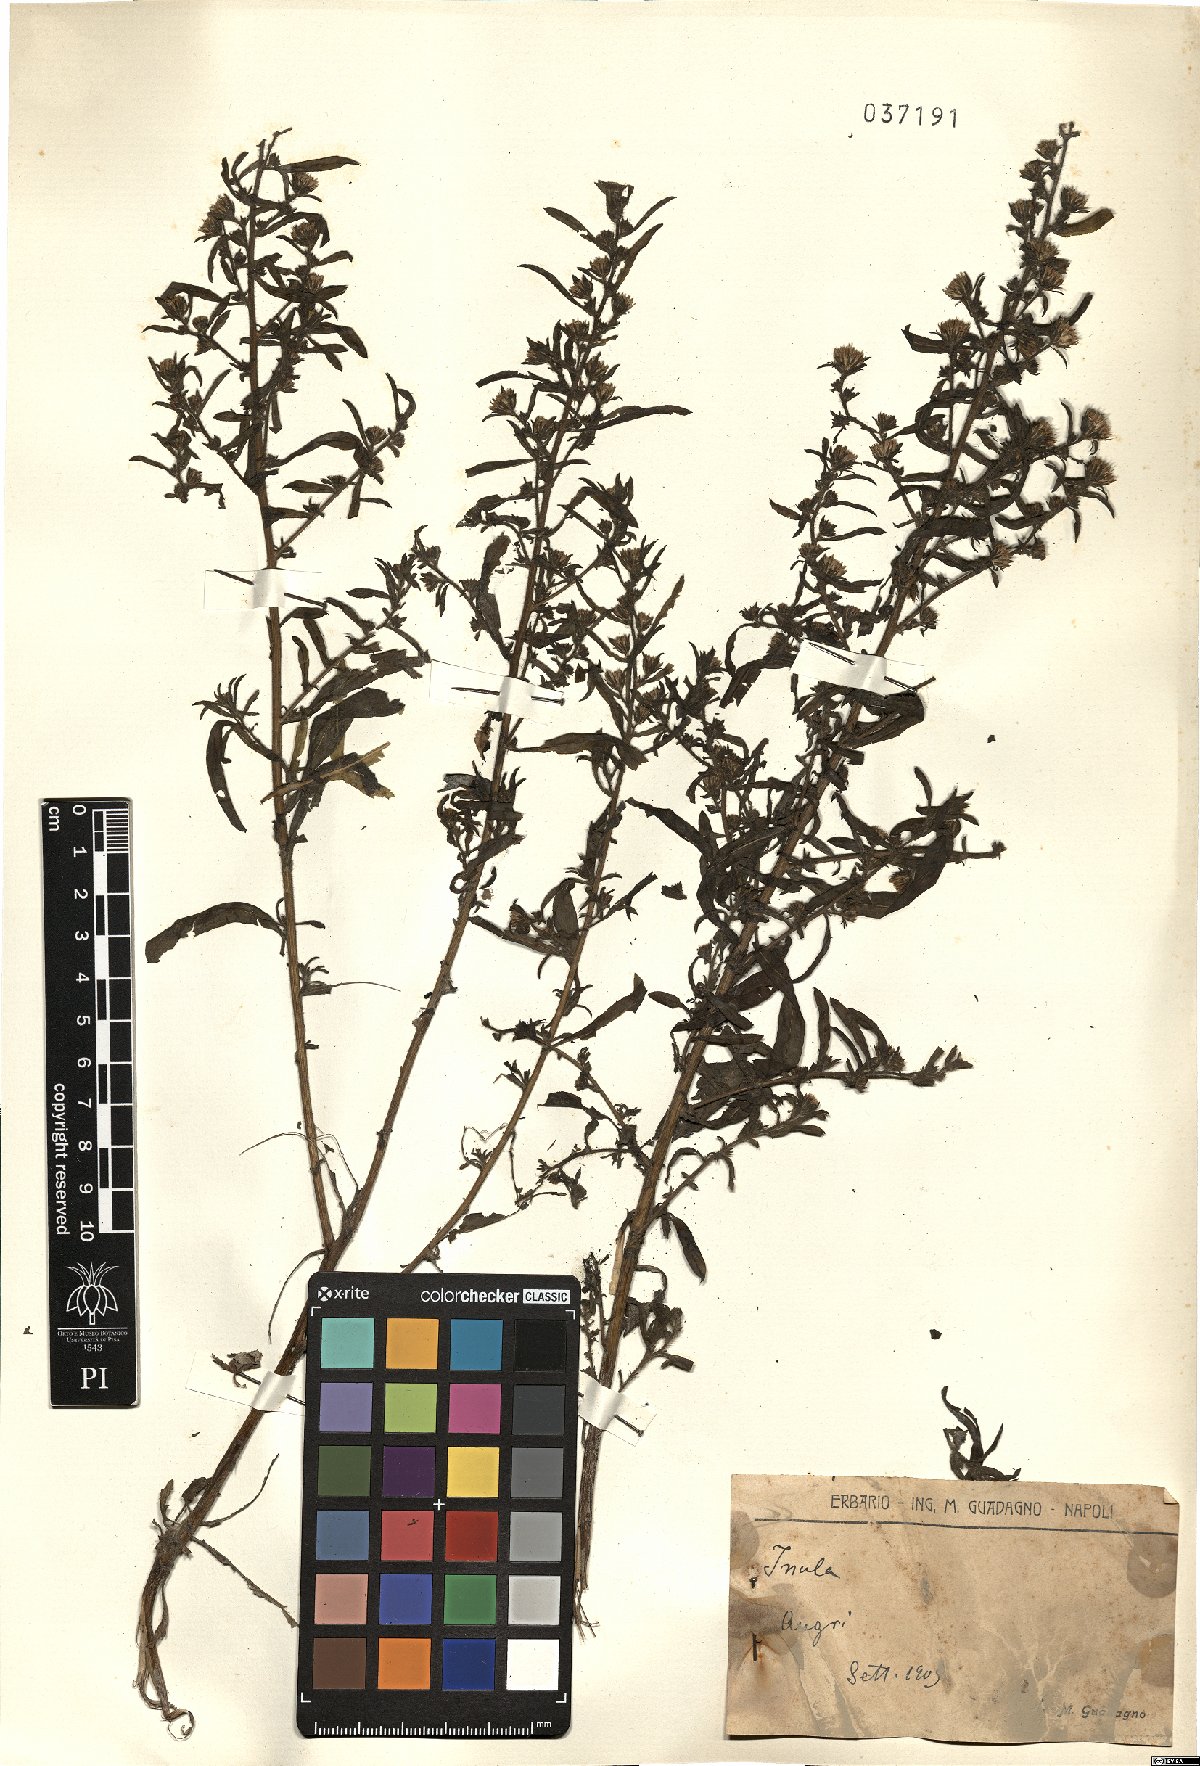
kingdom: Plantae
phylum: Tracheophyta
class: Magnoliopsida
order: Asterales
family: Asteraceae
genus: Inula
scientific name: Inula
